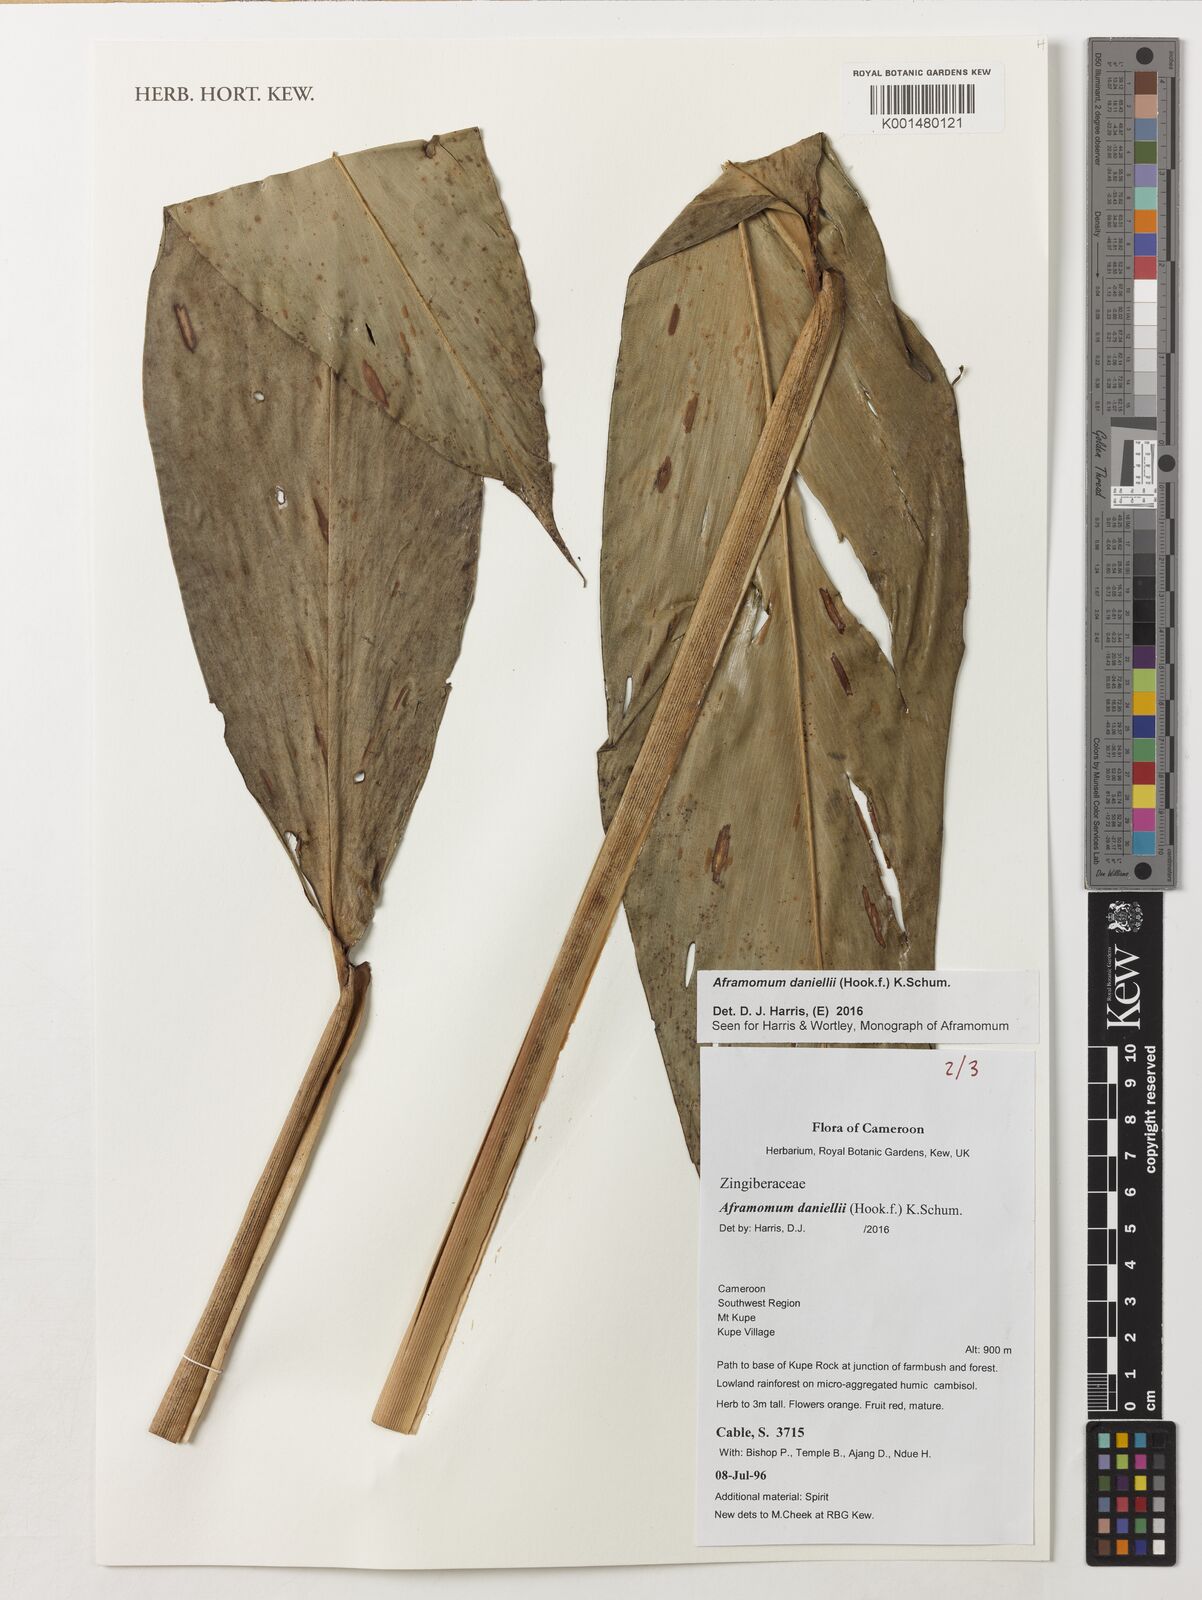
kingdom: Plantae
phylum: Tracheophyta
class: Liliopsida
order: Zingiberales
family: Zingiberaceae
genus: Aframomum
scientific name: Aframomum daniellii
